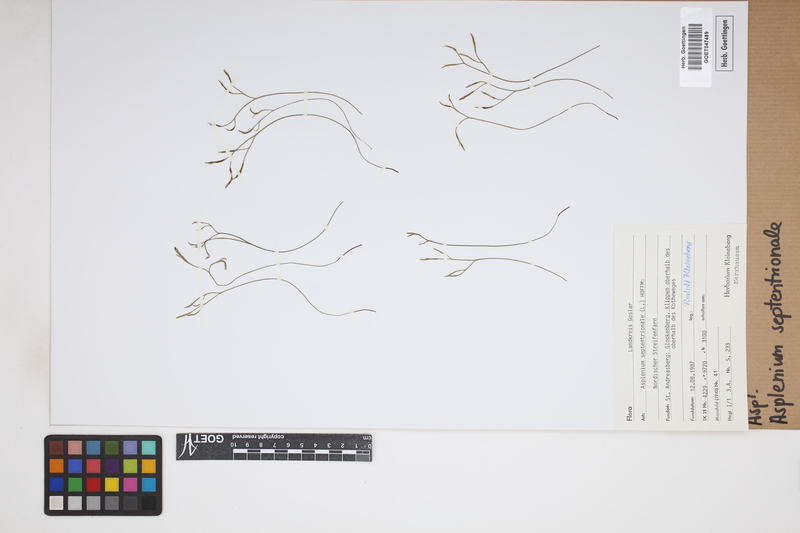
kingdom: Plantae
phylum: Tracheophyta
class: Polypodiopsida
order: Polypodiales
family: Aspleniaceae
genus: Asplenium
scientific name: Asplenium septentrionale
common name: Forked spleenwort
